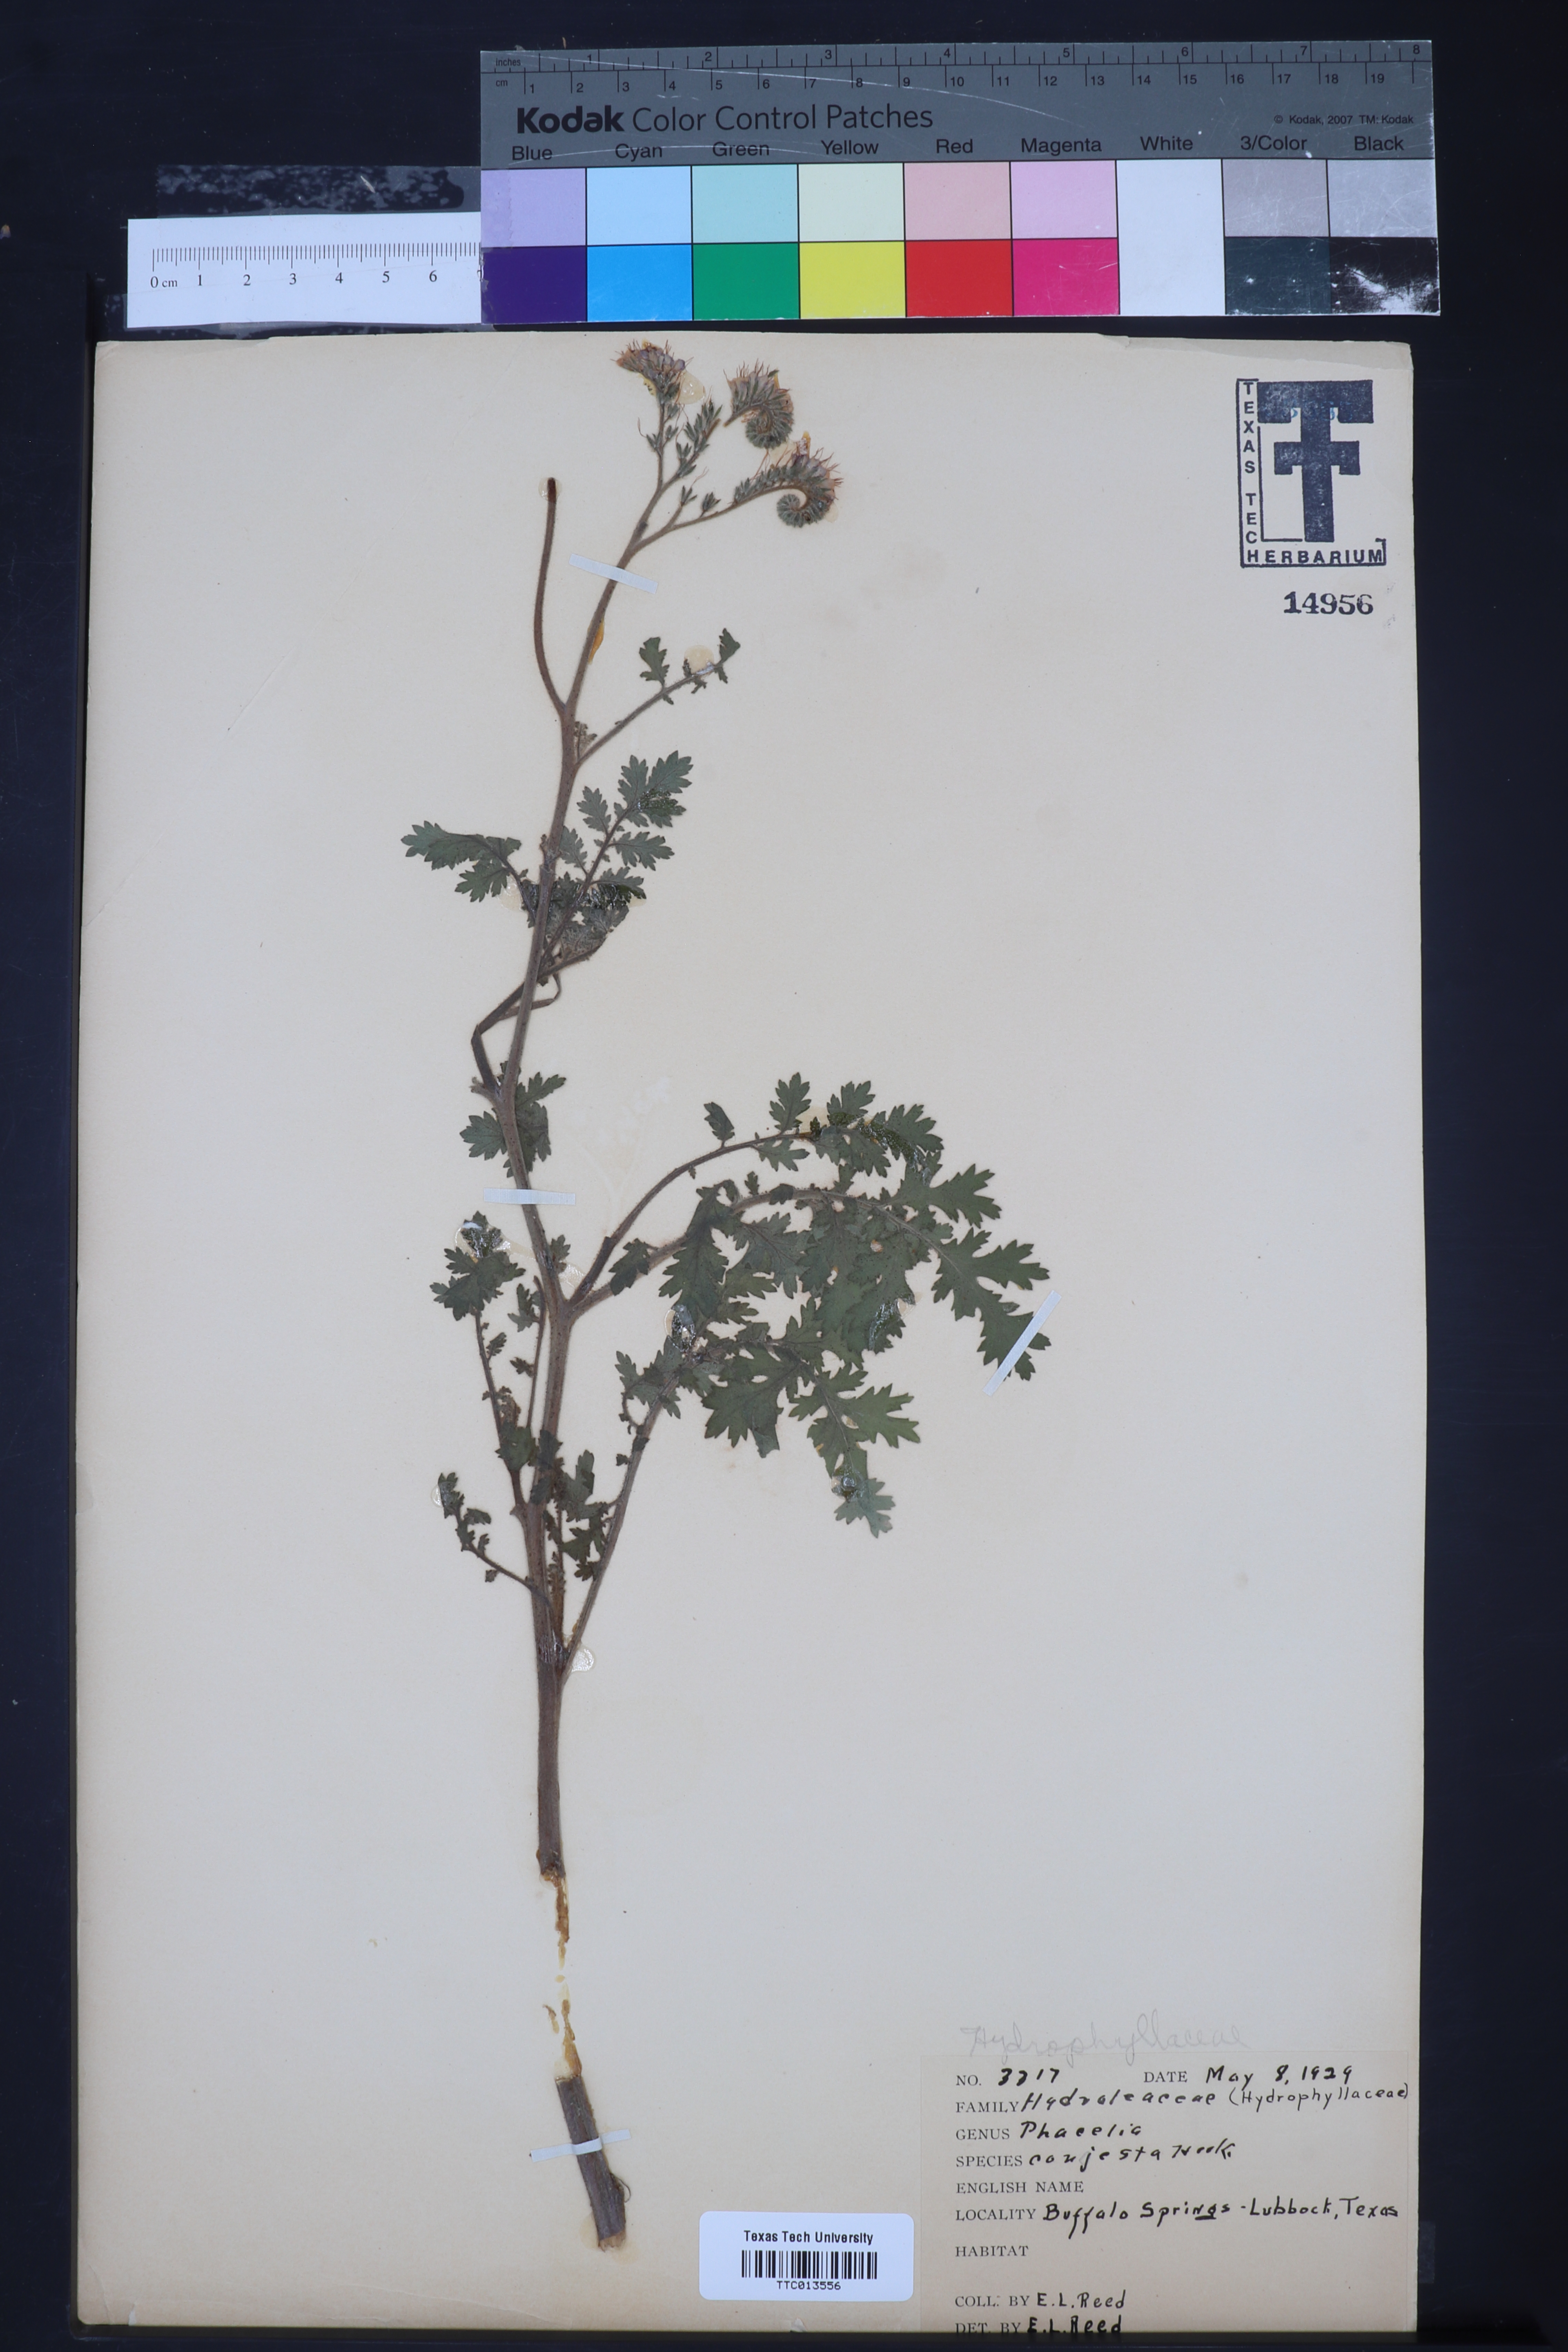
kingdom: Plantae
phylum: Tracheophyta
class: Magnoliopsida
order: Boraginales
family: Hydrophyllaceae
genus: Phacelia
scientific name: Phacelia congesta
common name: Blue curls
